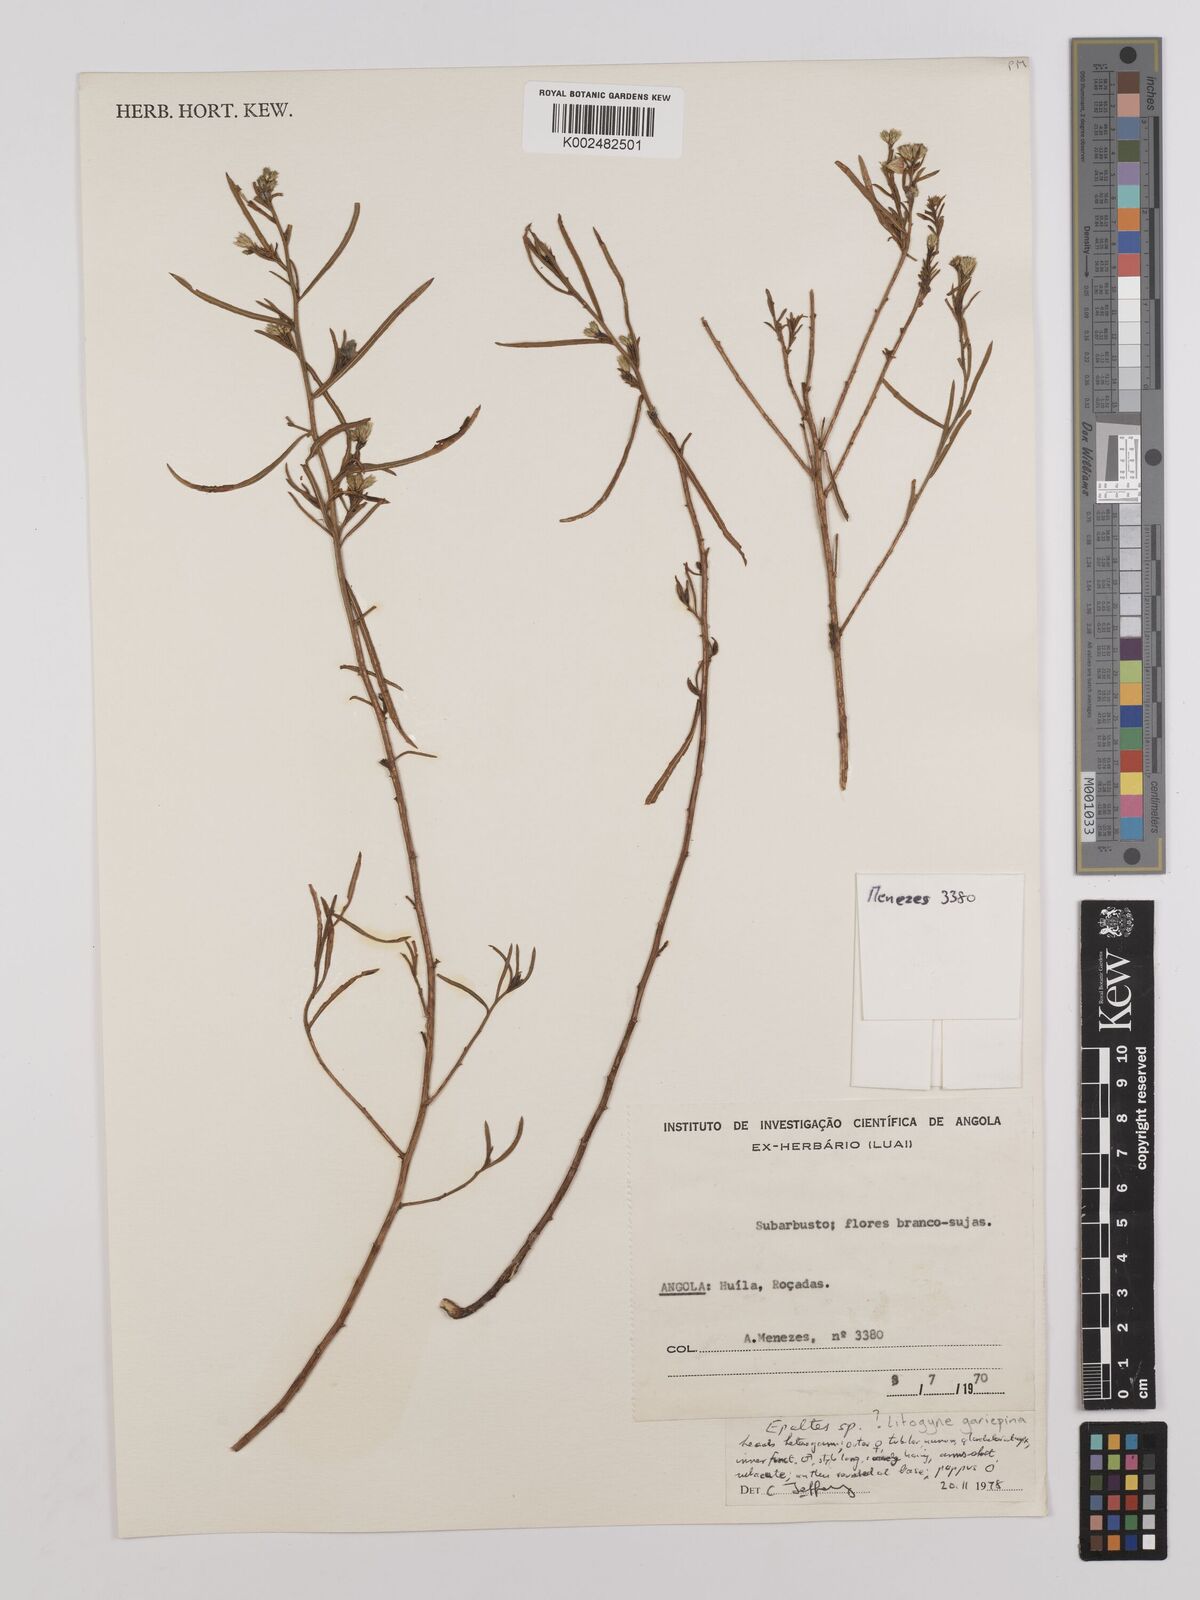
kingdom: Plantae
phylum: Tracheophyta
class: Magnoliopsida
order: Asterales
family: Asteraceae
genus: Litogyne
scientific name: Litogyne
